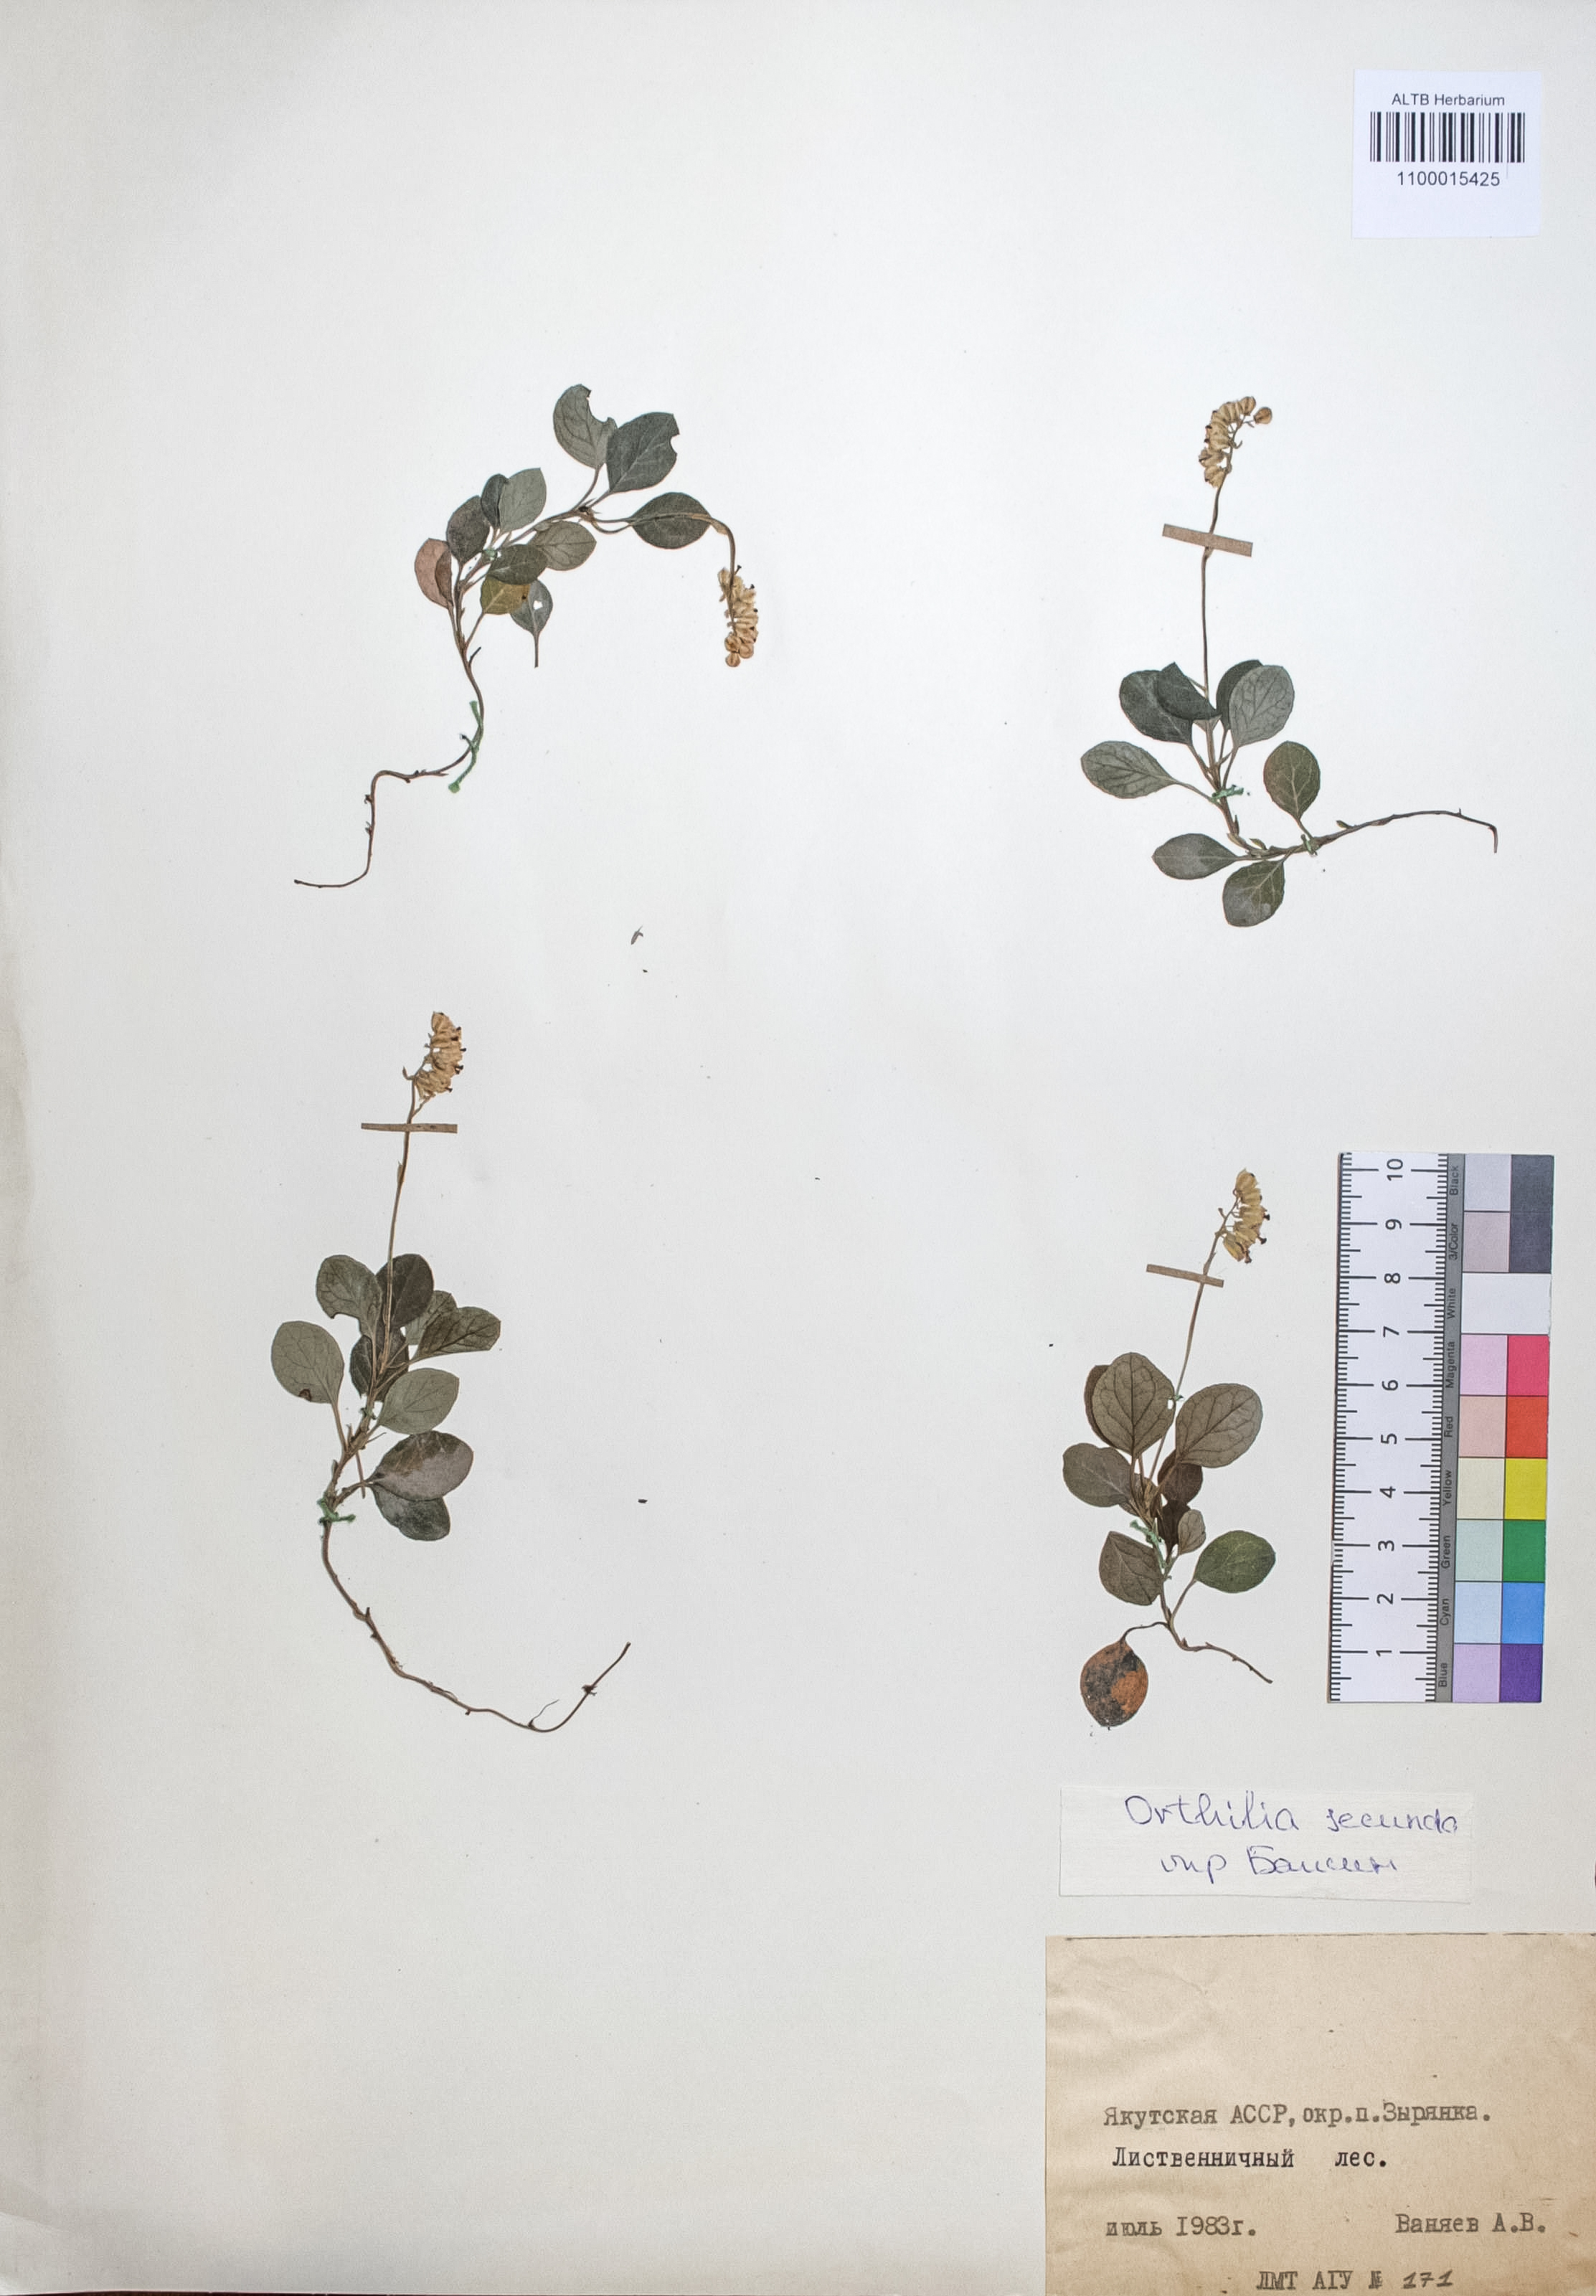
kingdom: Plantae
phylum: Tracheophyta
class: Magnoliopsida
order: Ericales
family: Ericaceae
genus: Orthilia
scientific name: Orthilia secunda
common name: One-sided orthilia
